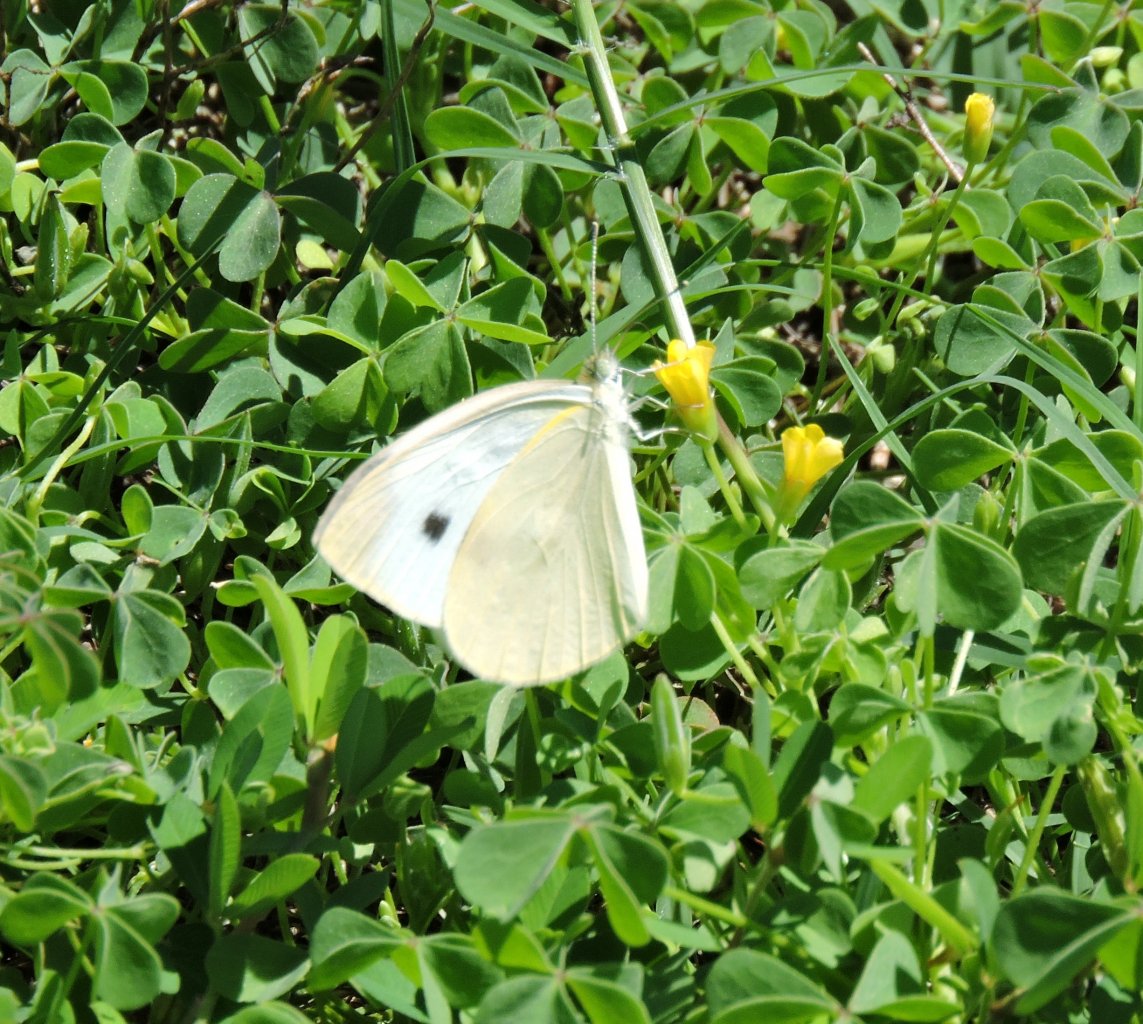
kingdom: Animalia
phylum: Arthropoda
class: Insecta
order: Lepidoptera
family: Pieridae
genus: Pieris
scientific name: Pieris rapae
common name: Cabbage White
